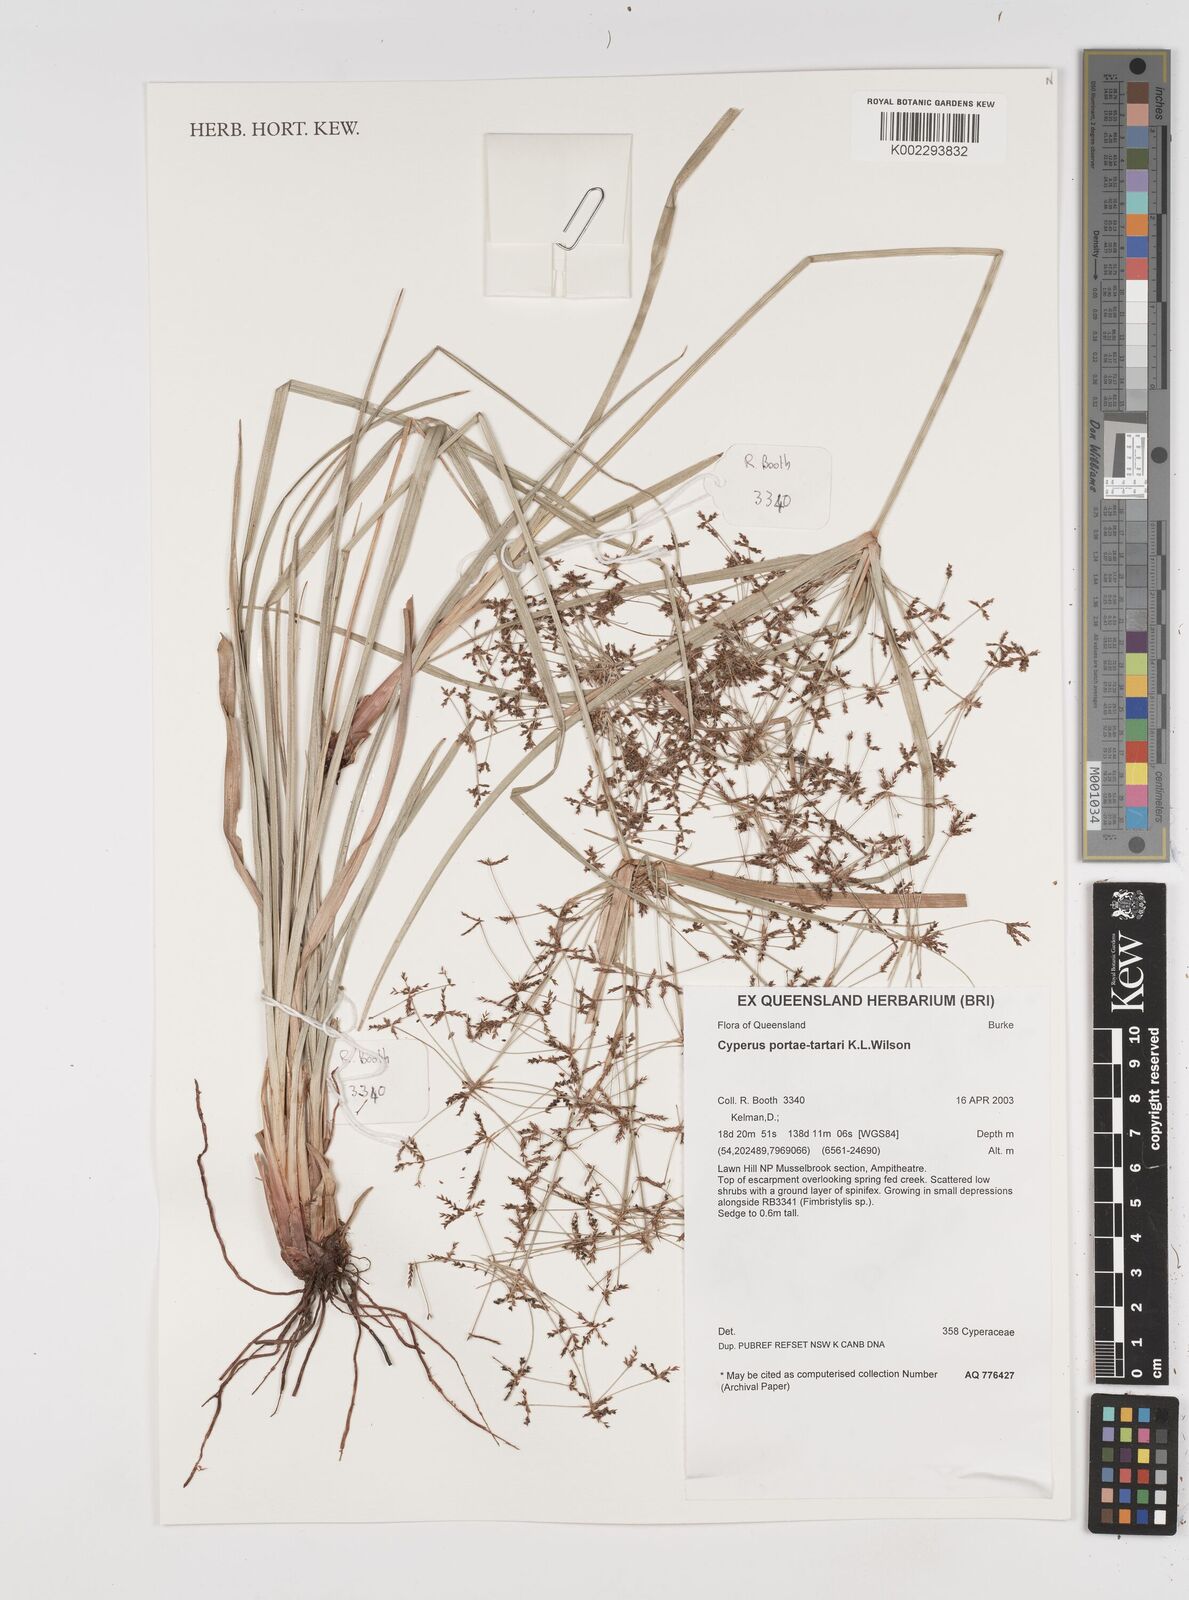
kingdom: Plantae
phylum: Tracheophyta
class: Liliopsida
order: Poales
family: Cyperaceae
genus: Cyperus
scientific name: Cyperus portae-tartari
